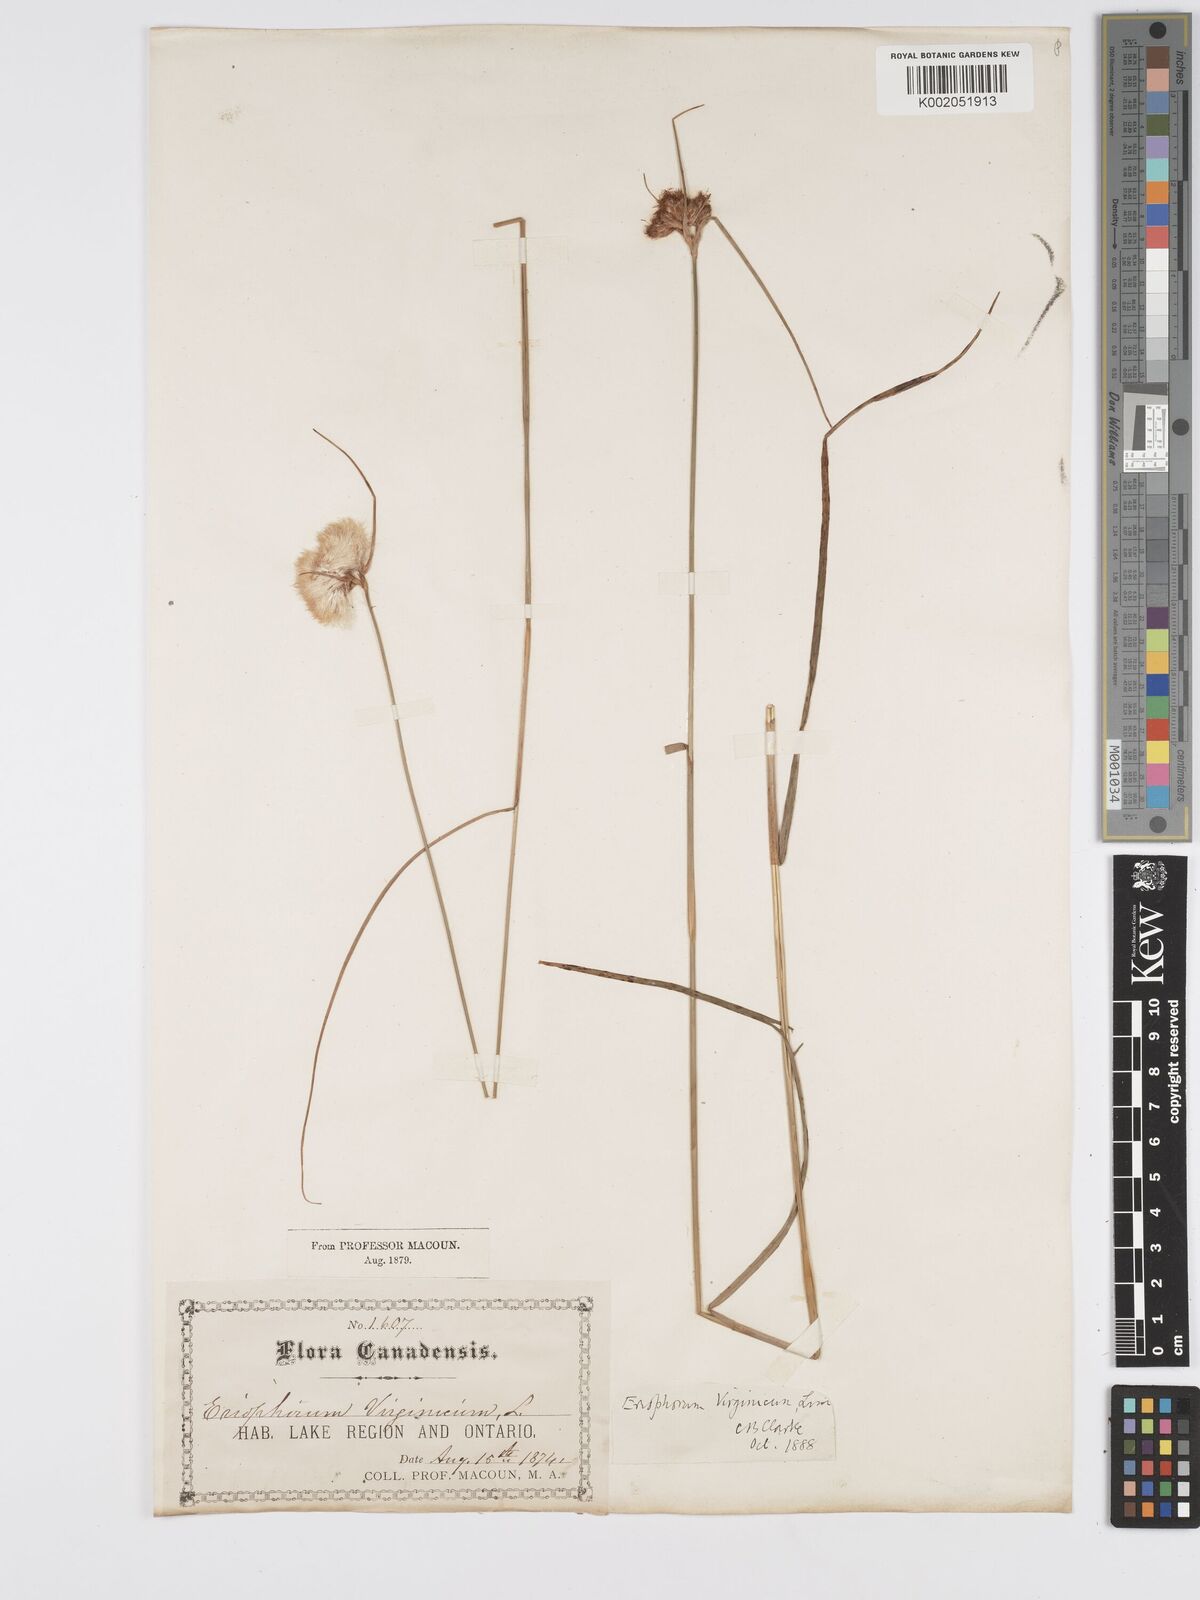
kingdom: Plantae
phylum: Tracheophyta
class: Liliopsida
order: Poales
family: Cyperaceae
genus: Eriophorum
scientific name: Eriophorum virginicum
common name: Tawny cottongrass
